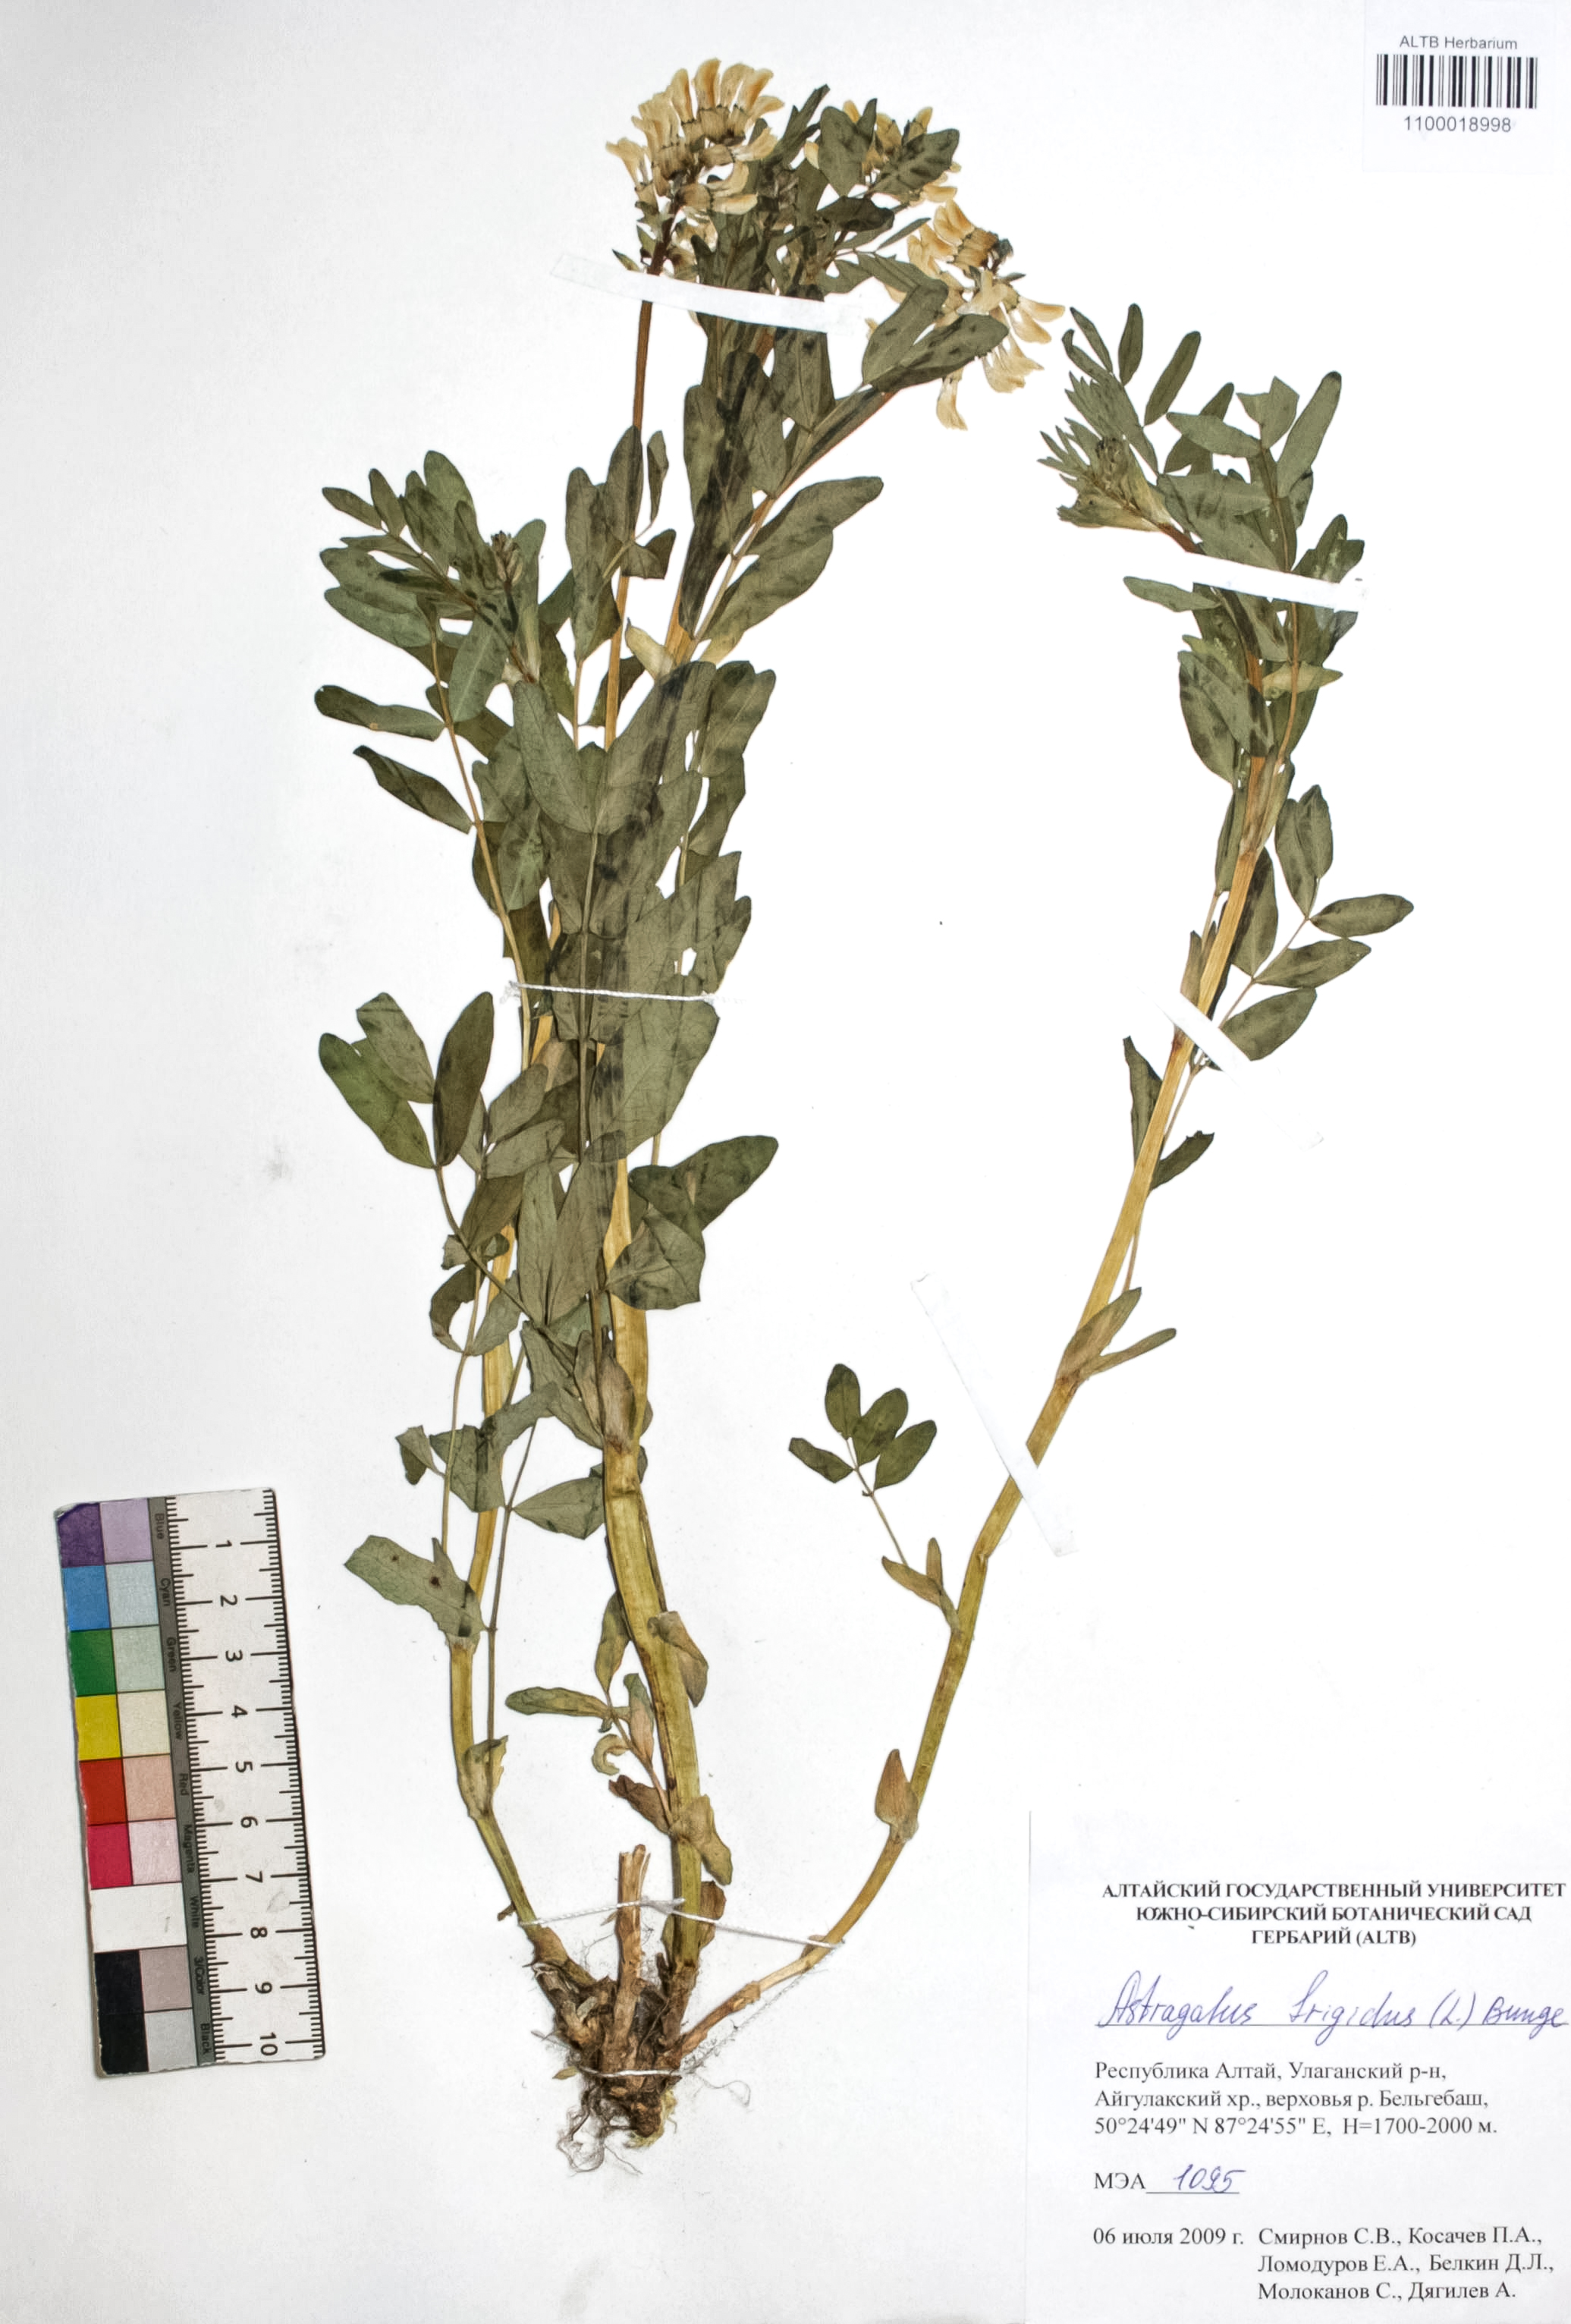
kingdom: Plantae
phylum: Tracheophyta
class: Magnoliopsida
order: Fabales
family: Fabaceae
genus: Astragalus
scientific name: Astragalus frigidus
